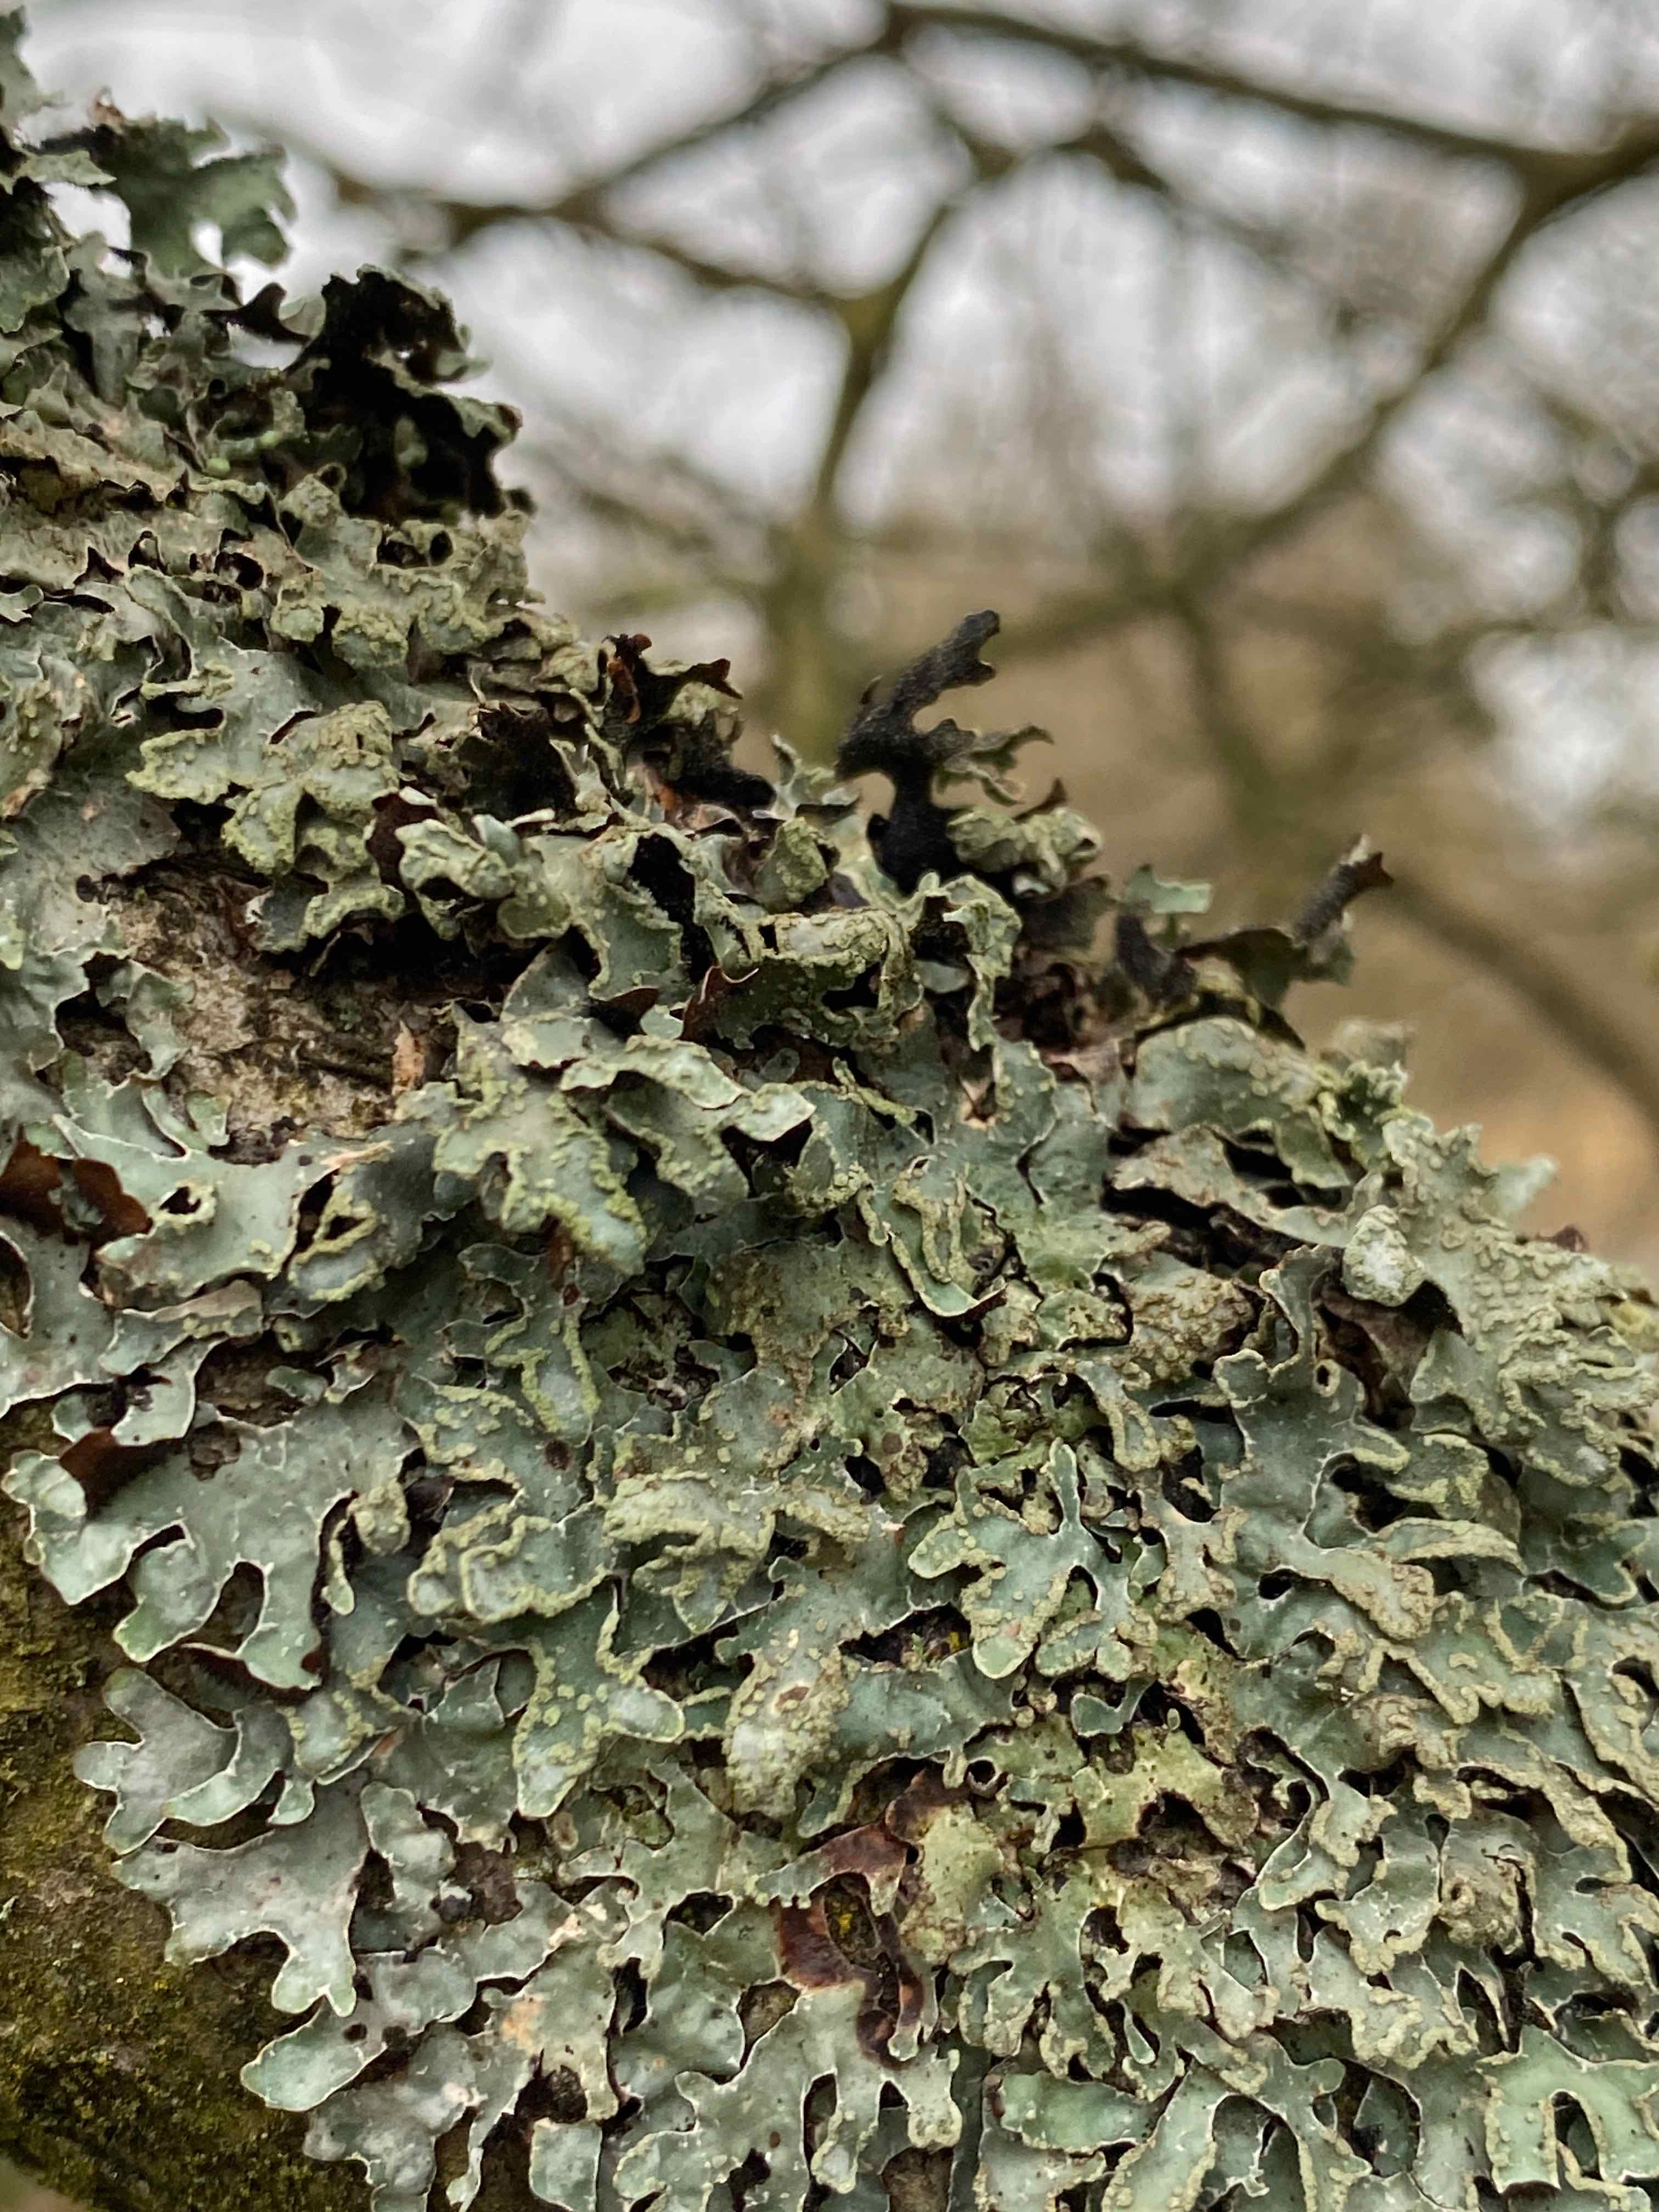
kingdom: Fungi
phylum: Ascomycota
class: Lecanoromycetes
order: Lecanorales
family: Parmeliaceae
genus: Parmelia
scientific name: Parmelia sulcata
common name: rynket skållav
